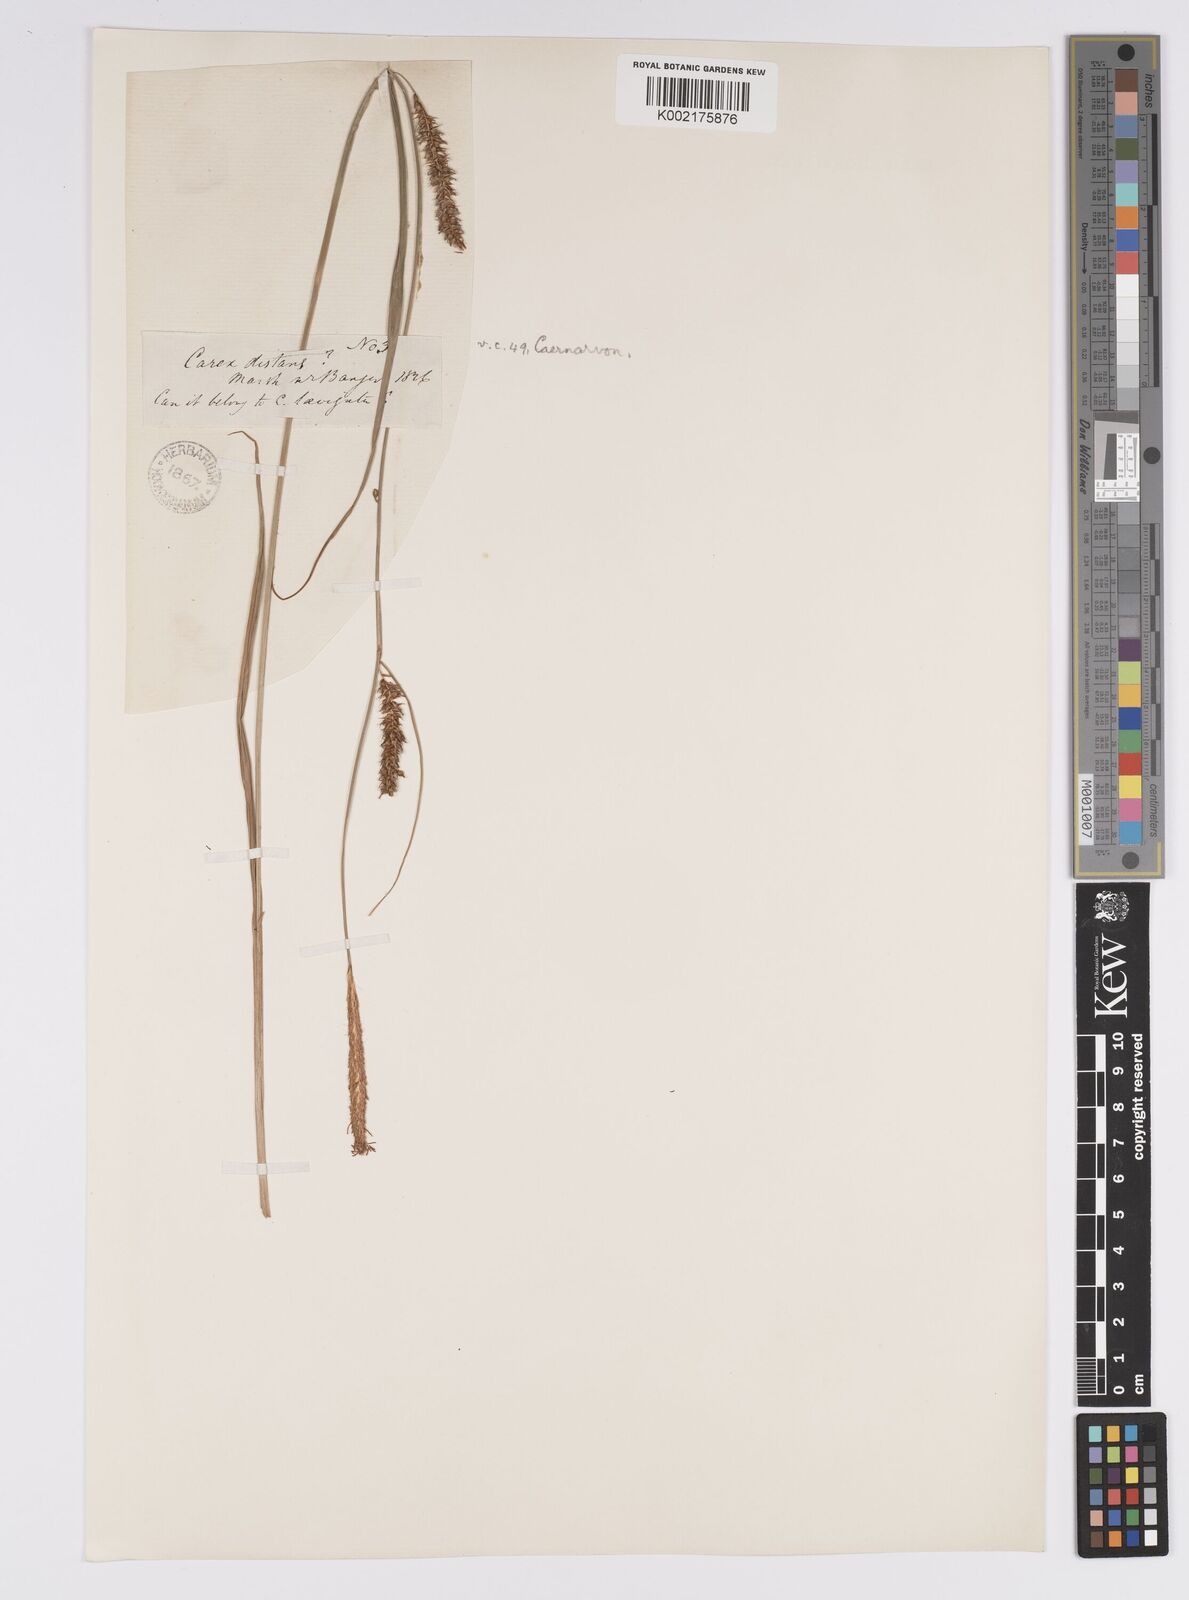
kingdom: Plantae
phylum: Tracheophyta
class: Liliopsida
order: Poales
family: Cyperaceae
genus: Carex
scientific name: Carex laevigata
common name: Smooth-stalked sedge
